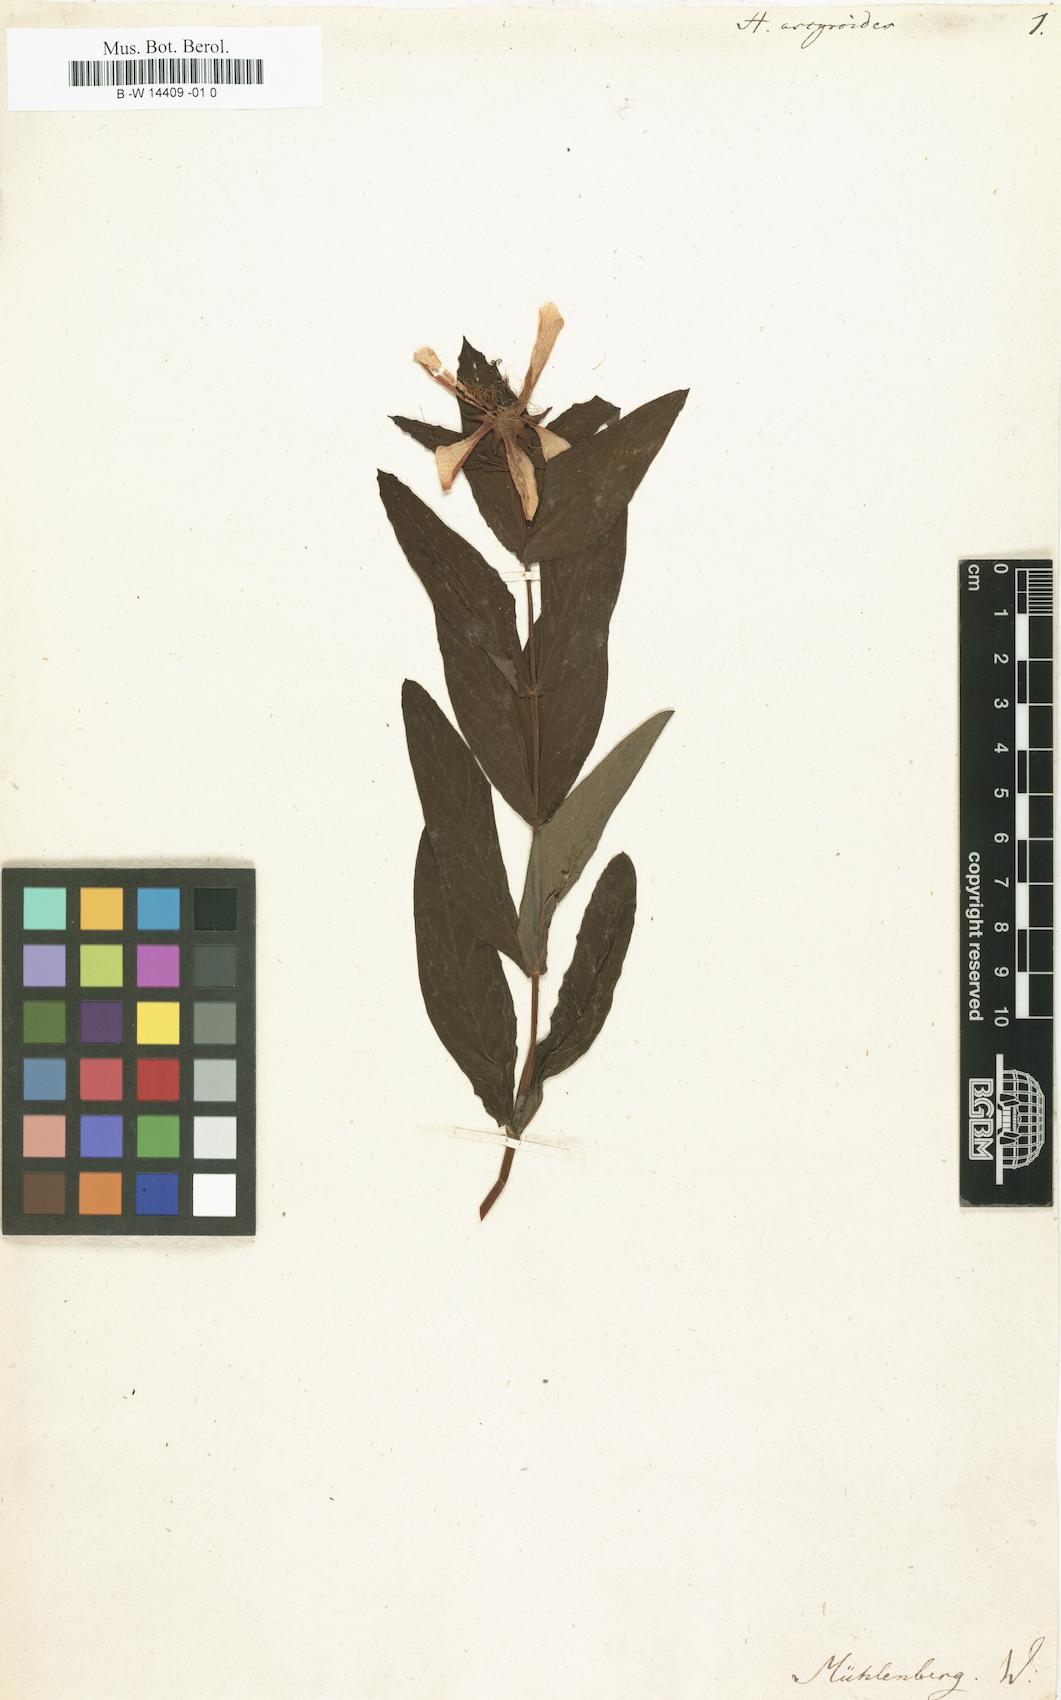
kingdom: Plantae
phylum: Tracheophyta
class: Magnoliopsida
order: Malpighiales
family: Hypericaceae
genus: Hypericum
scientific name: Hypericum ascyron
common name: Giant st. john's-wort
